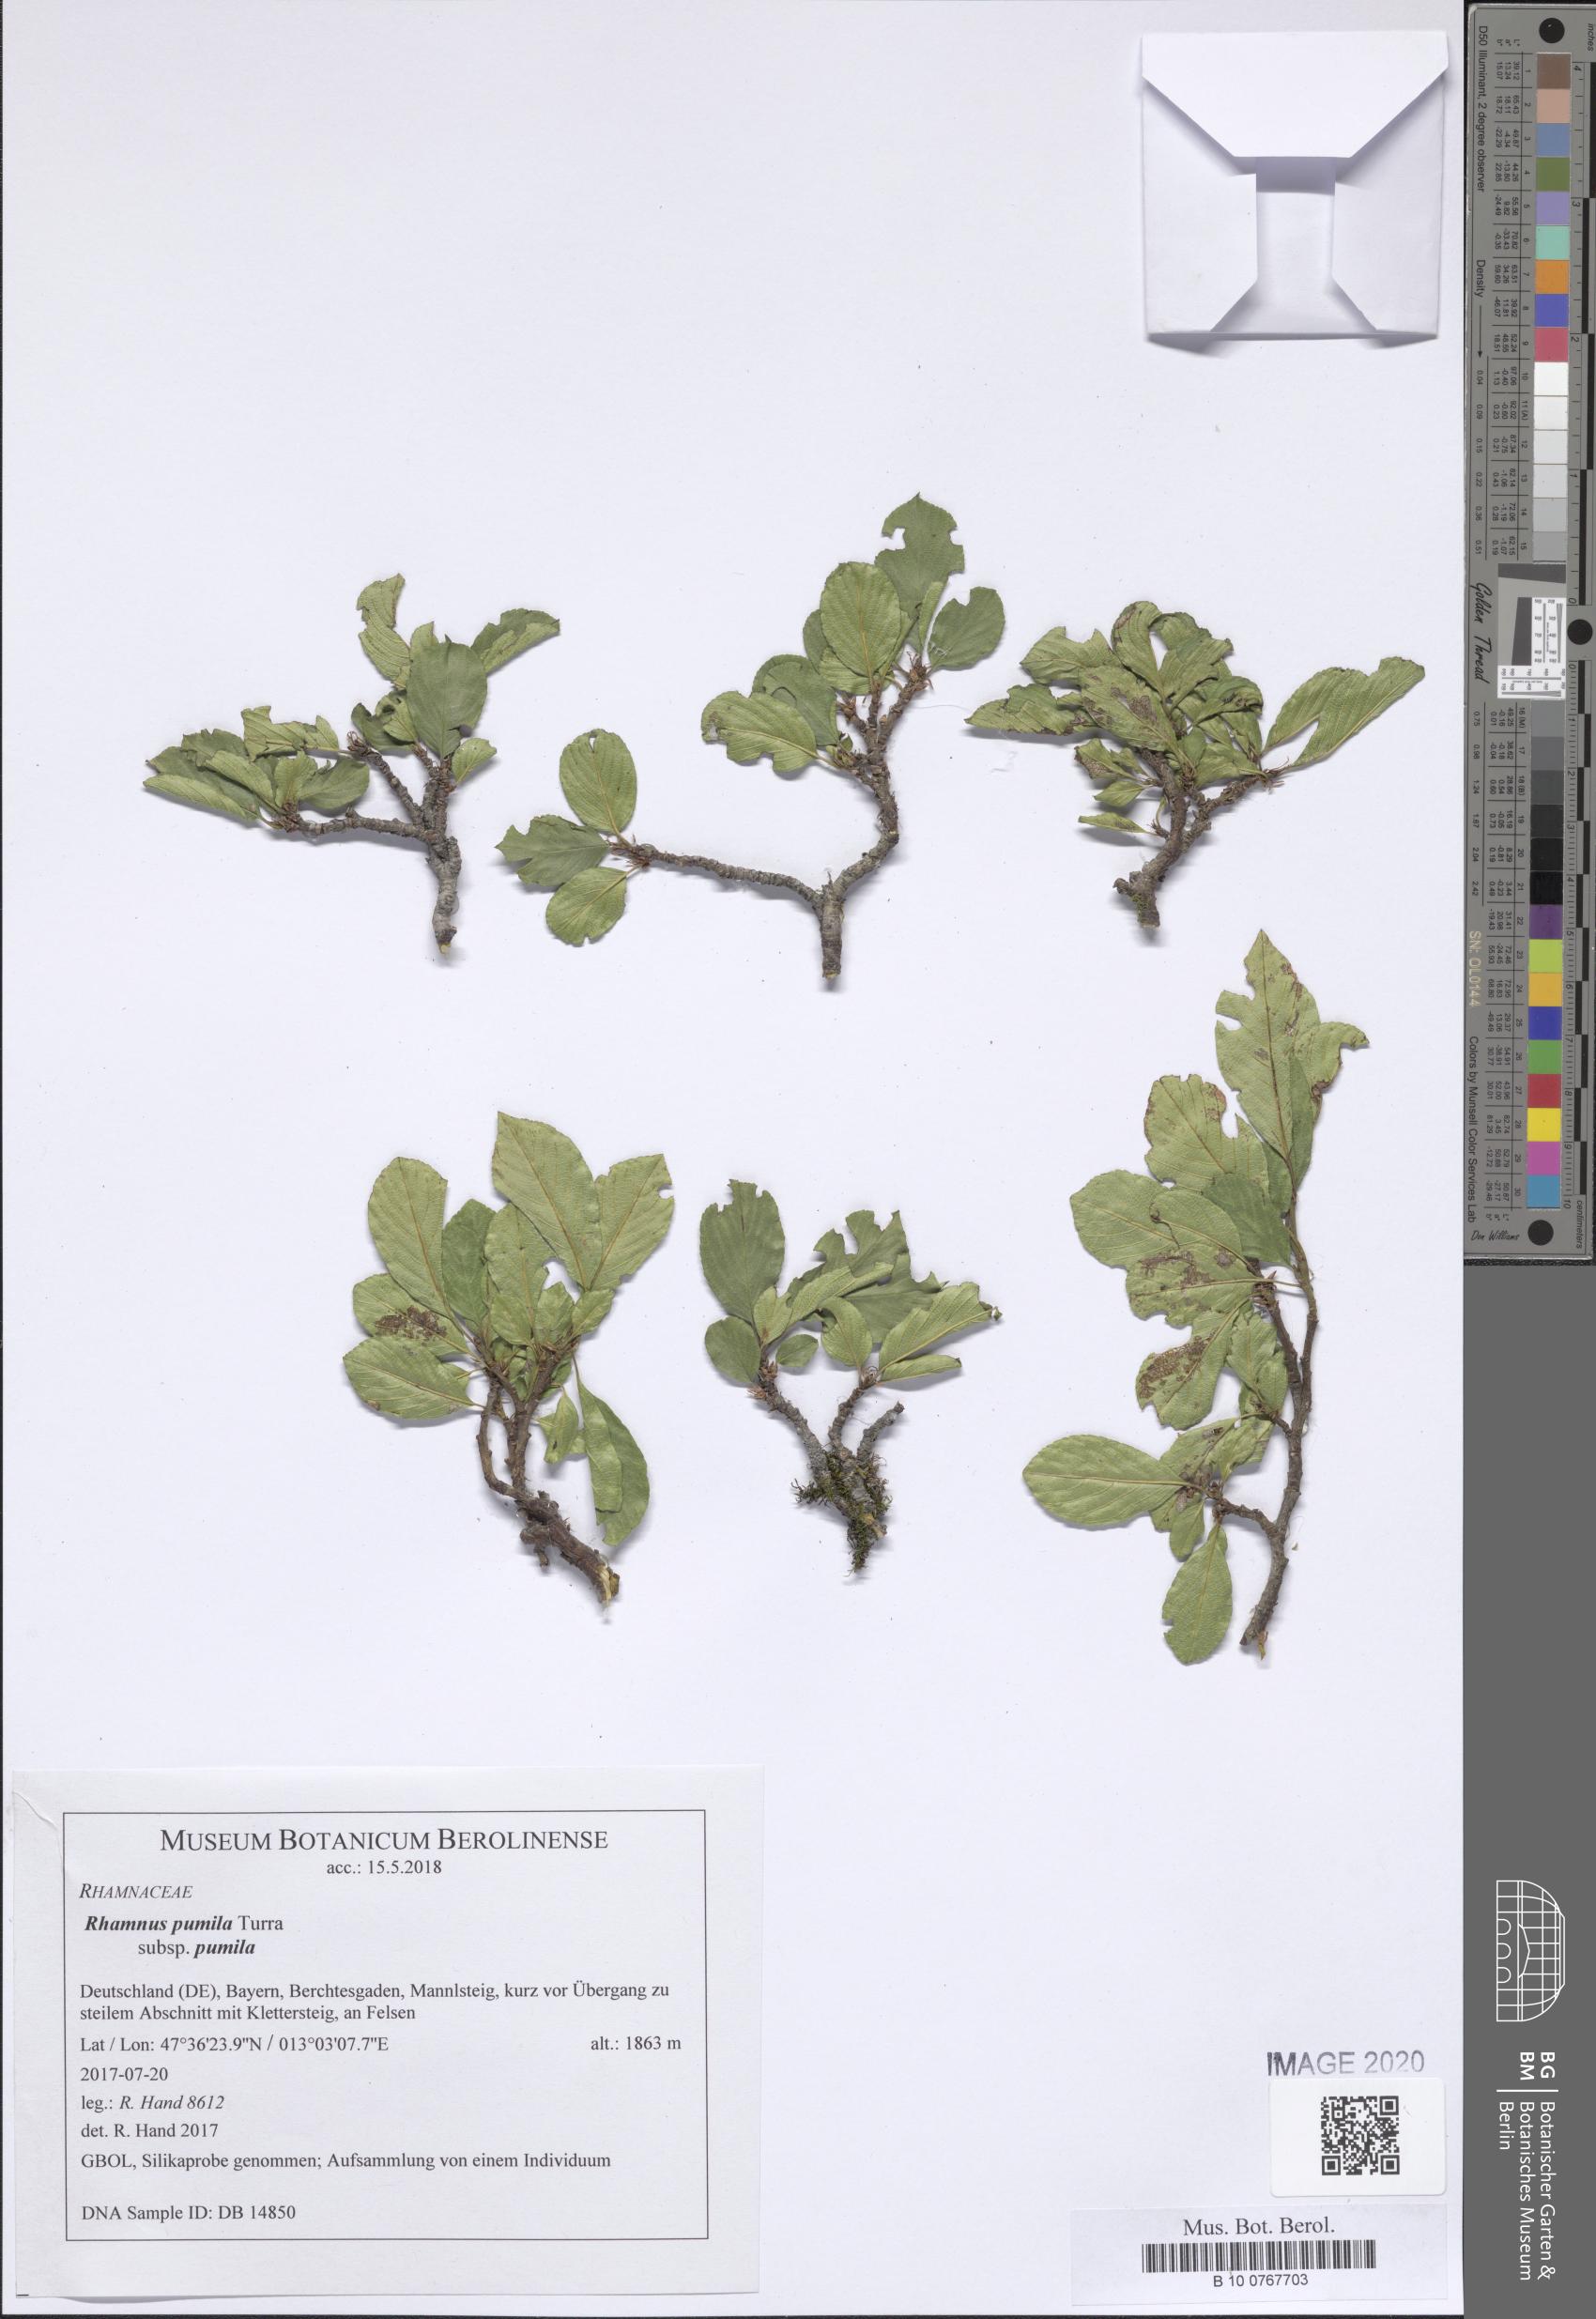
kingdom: Plantae
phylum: Tracheophyta
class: Magnoliopsida
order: Rosales
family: Rhamnaceae
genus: Atadinus
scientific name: Atadinus pumilus
